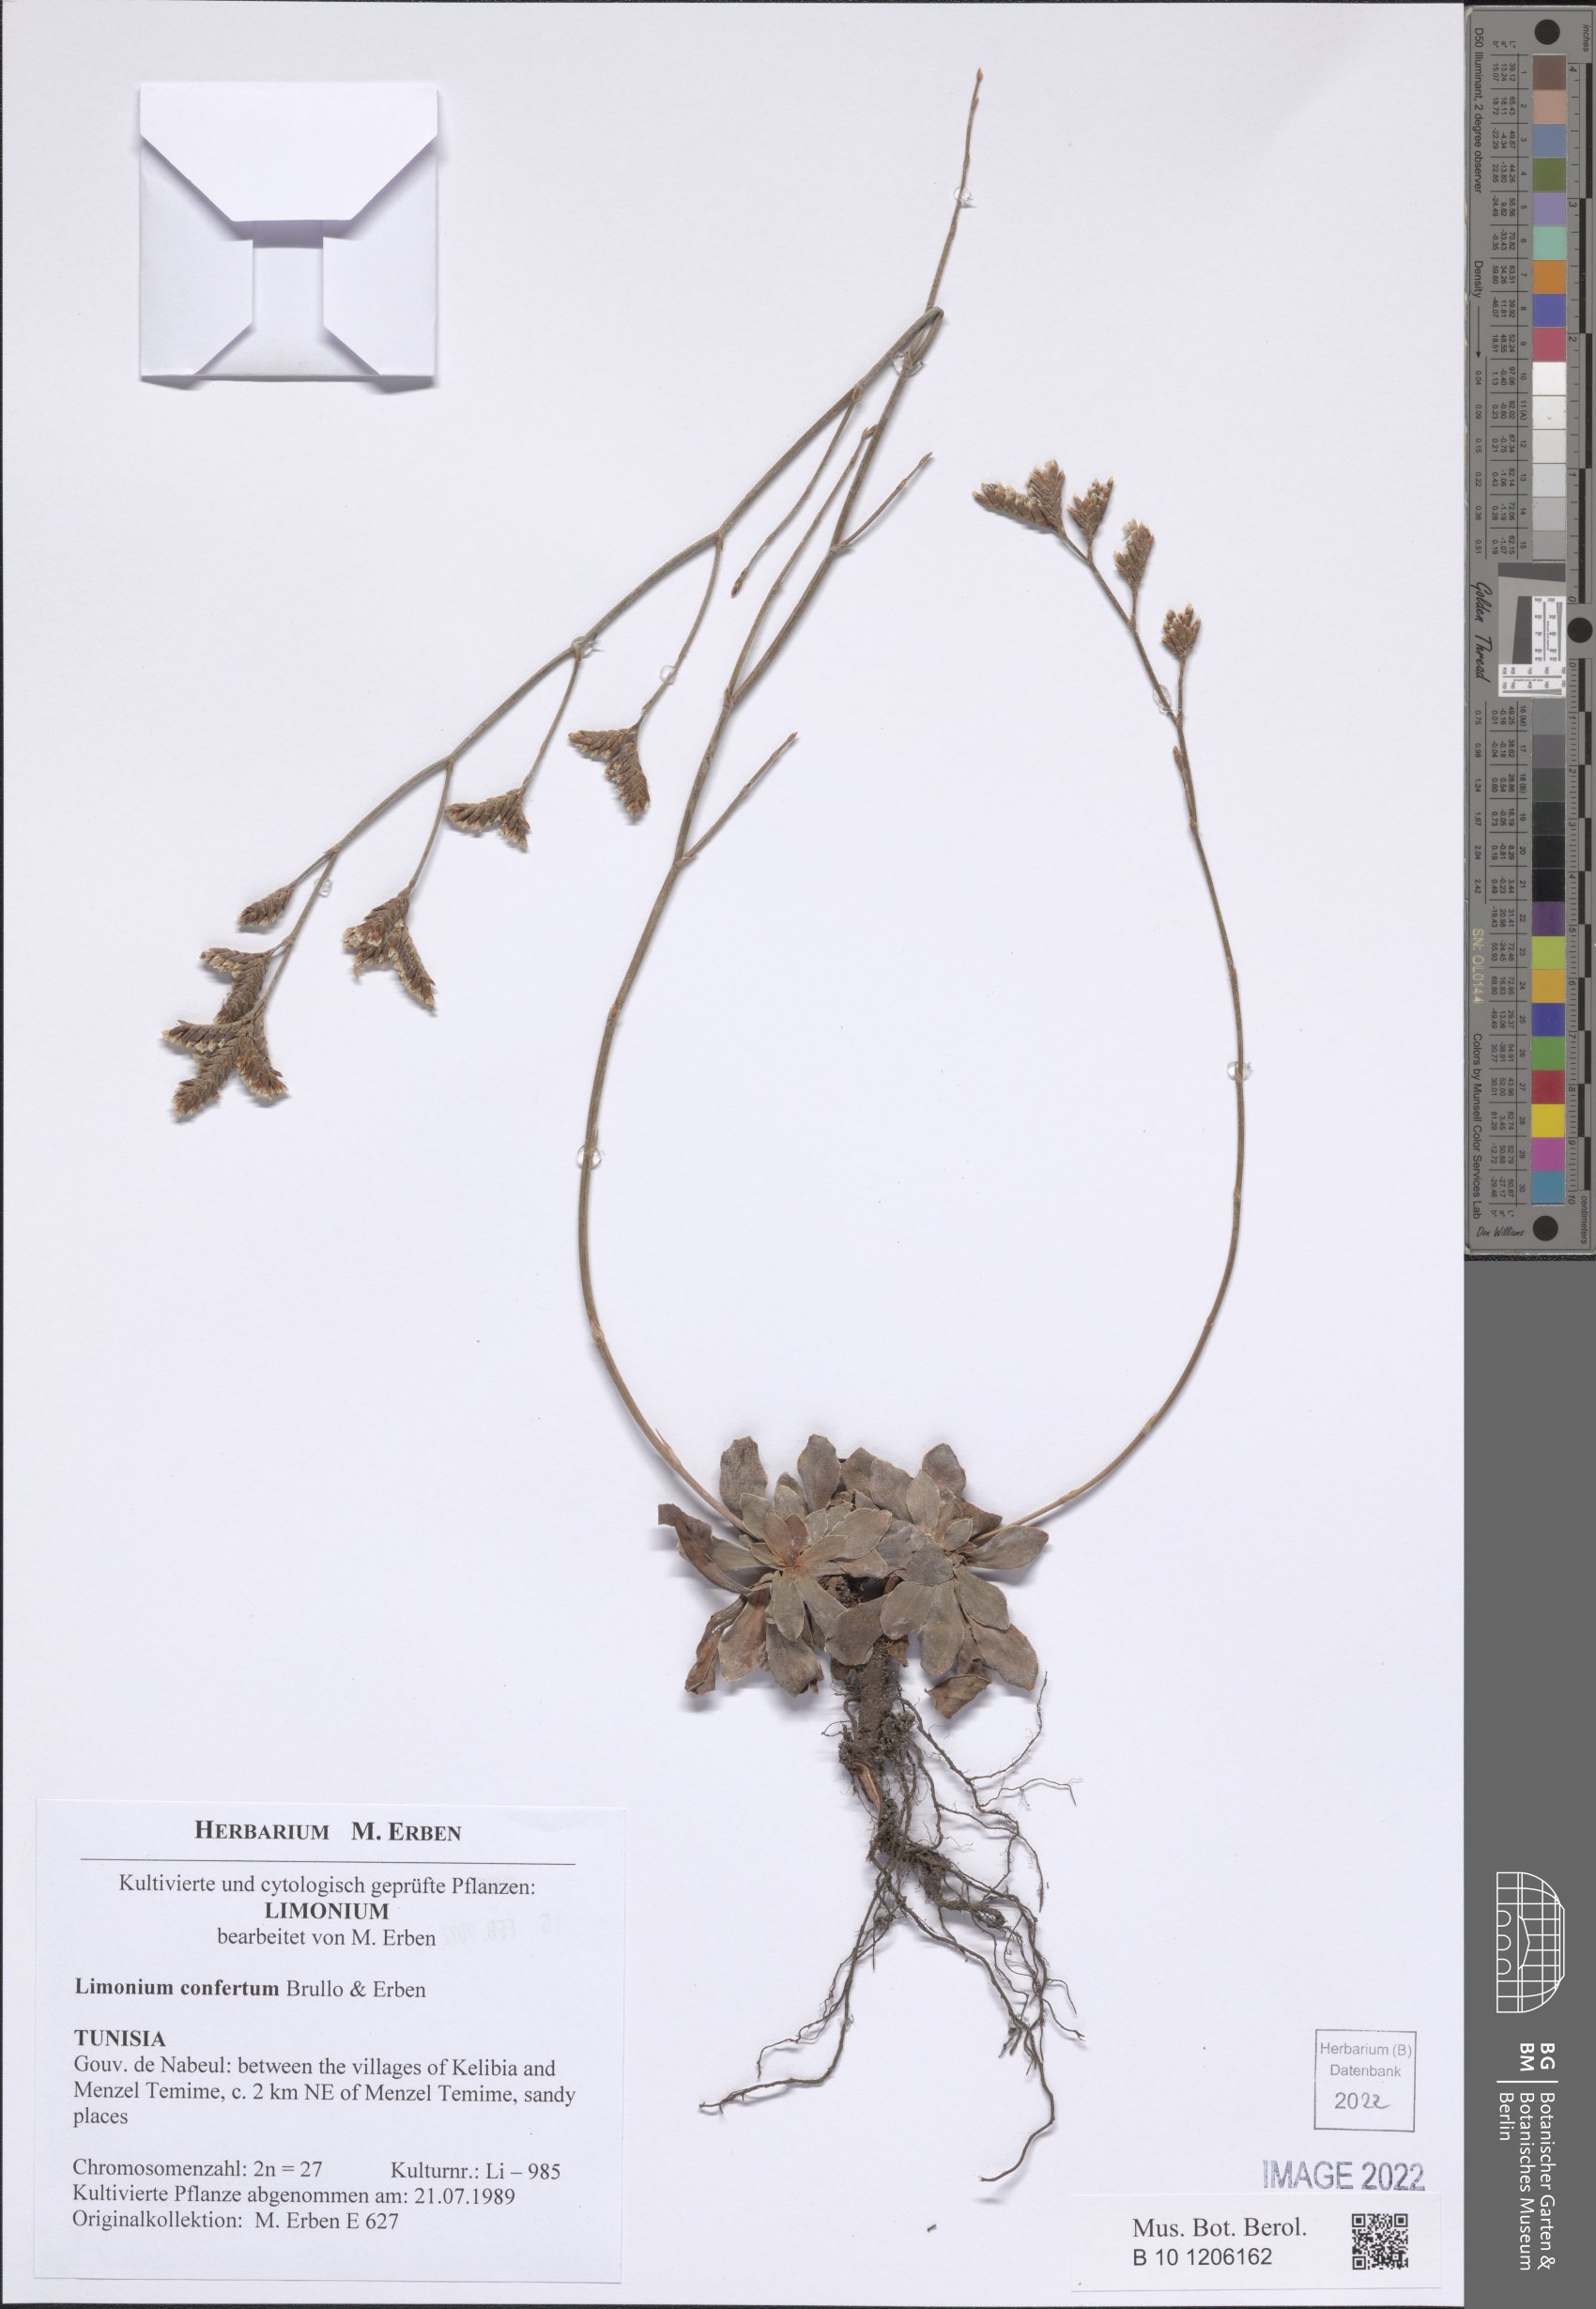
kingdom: Plantae
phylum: Tracheophyta
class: Magnoliopsida
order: Caryophyllales
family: Plumbaginaceae
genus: Limonium
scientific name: Limonium confertum
